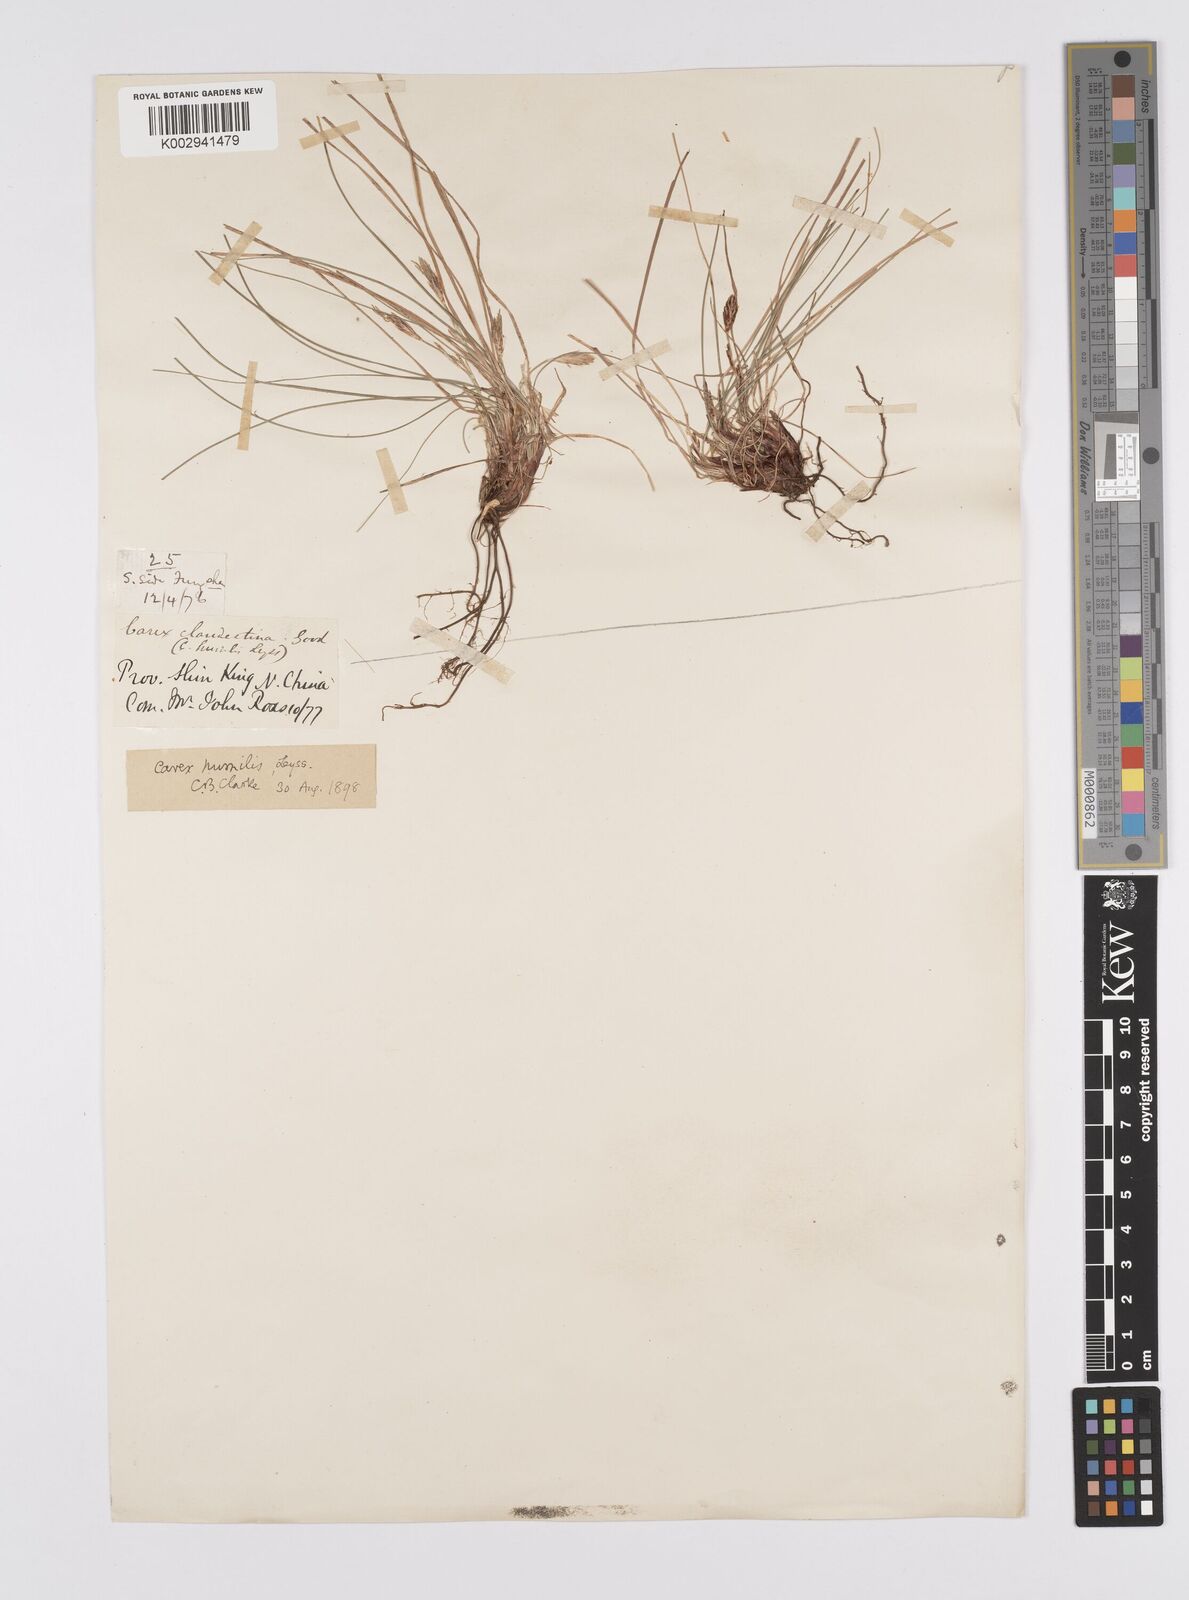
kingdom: Plantae
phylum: Tracheophyta
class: Liliopsida
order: Poales
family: Cyperaceae
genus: Carex
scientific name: Carex humilis
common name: Dwarf sedge
